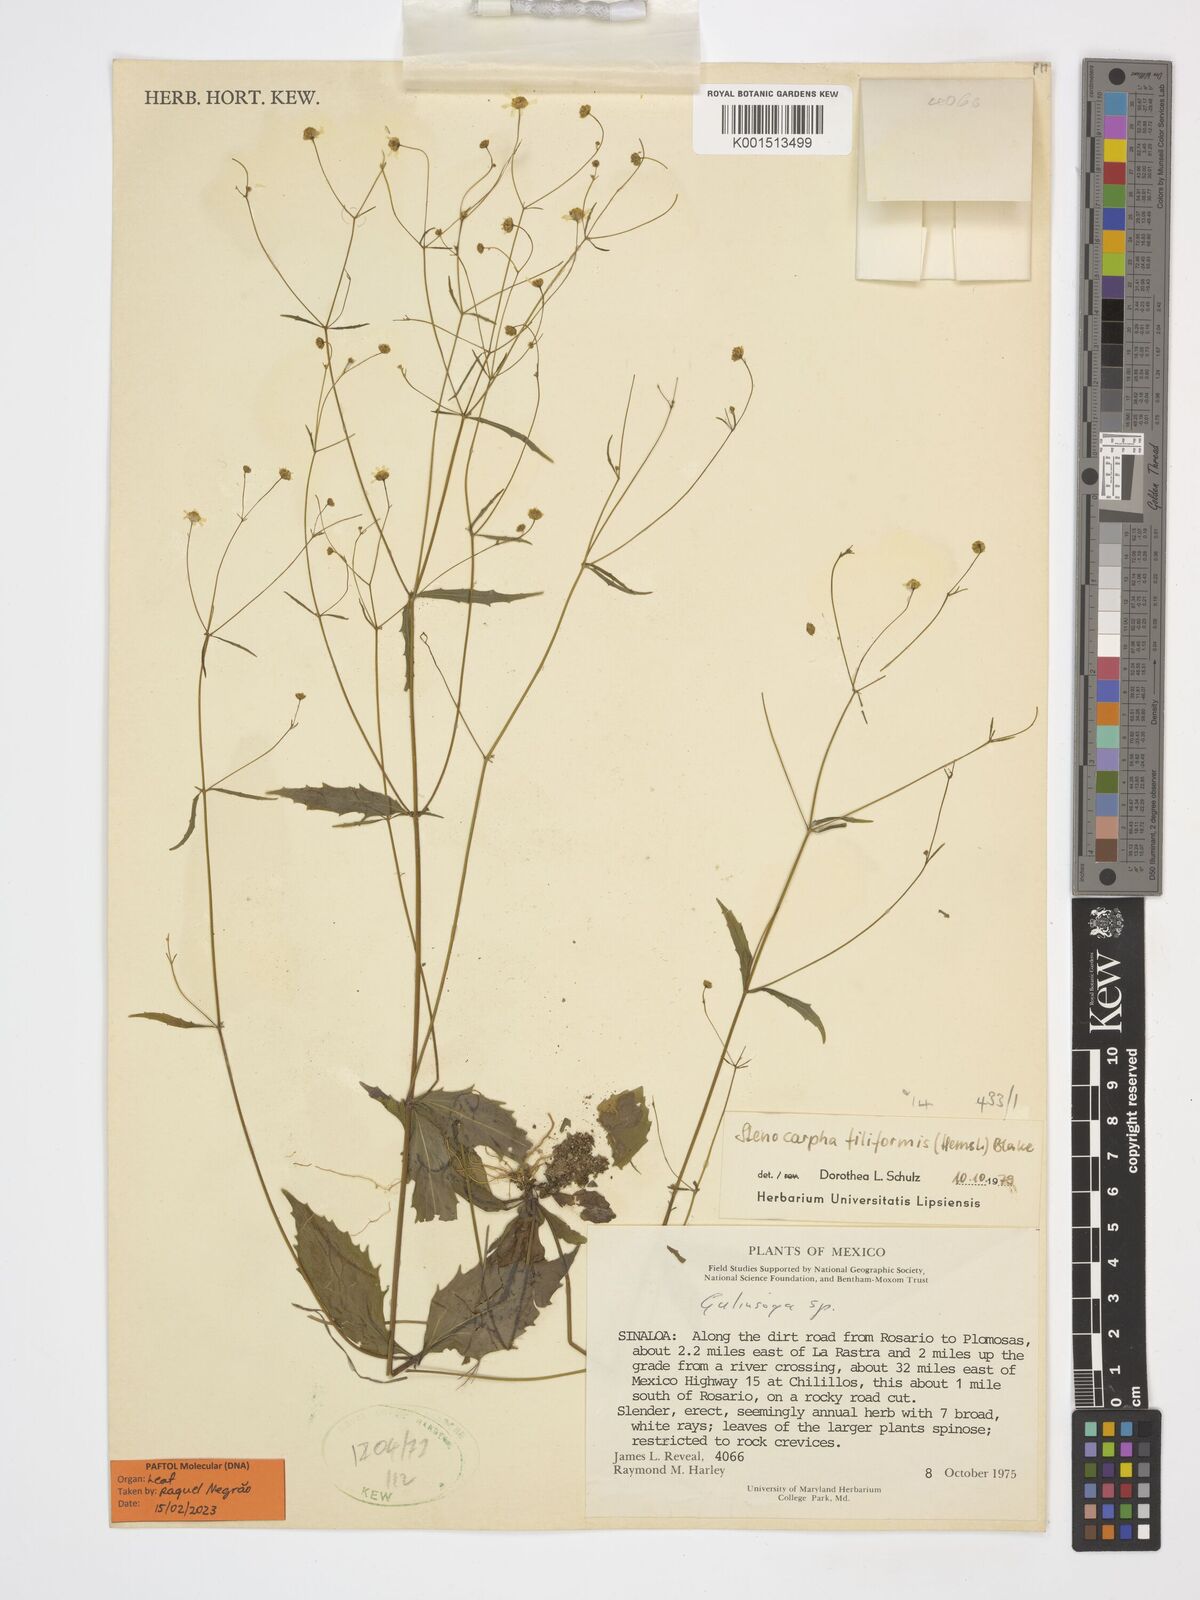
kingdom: Plantae
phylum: Tracheophyta
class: Magnoliopsida
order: Asterales
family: Asteraceae
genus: Stenocarpha
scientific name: Stenocarpha filiformis
